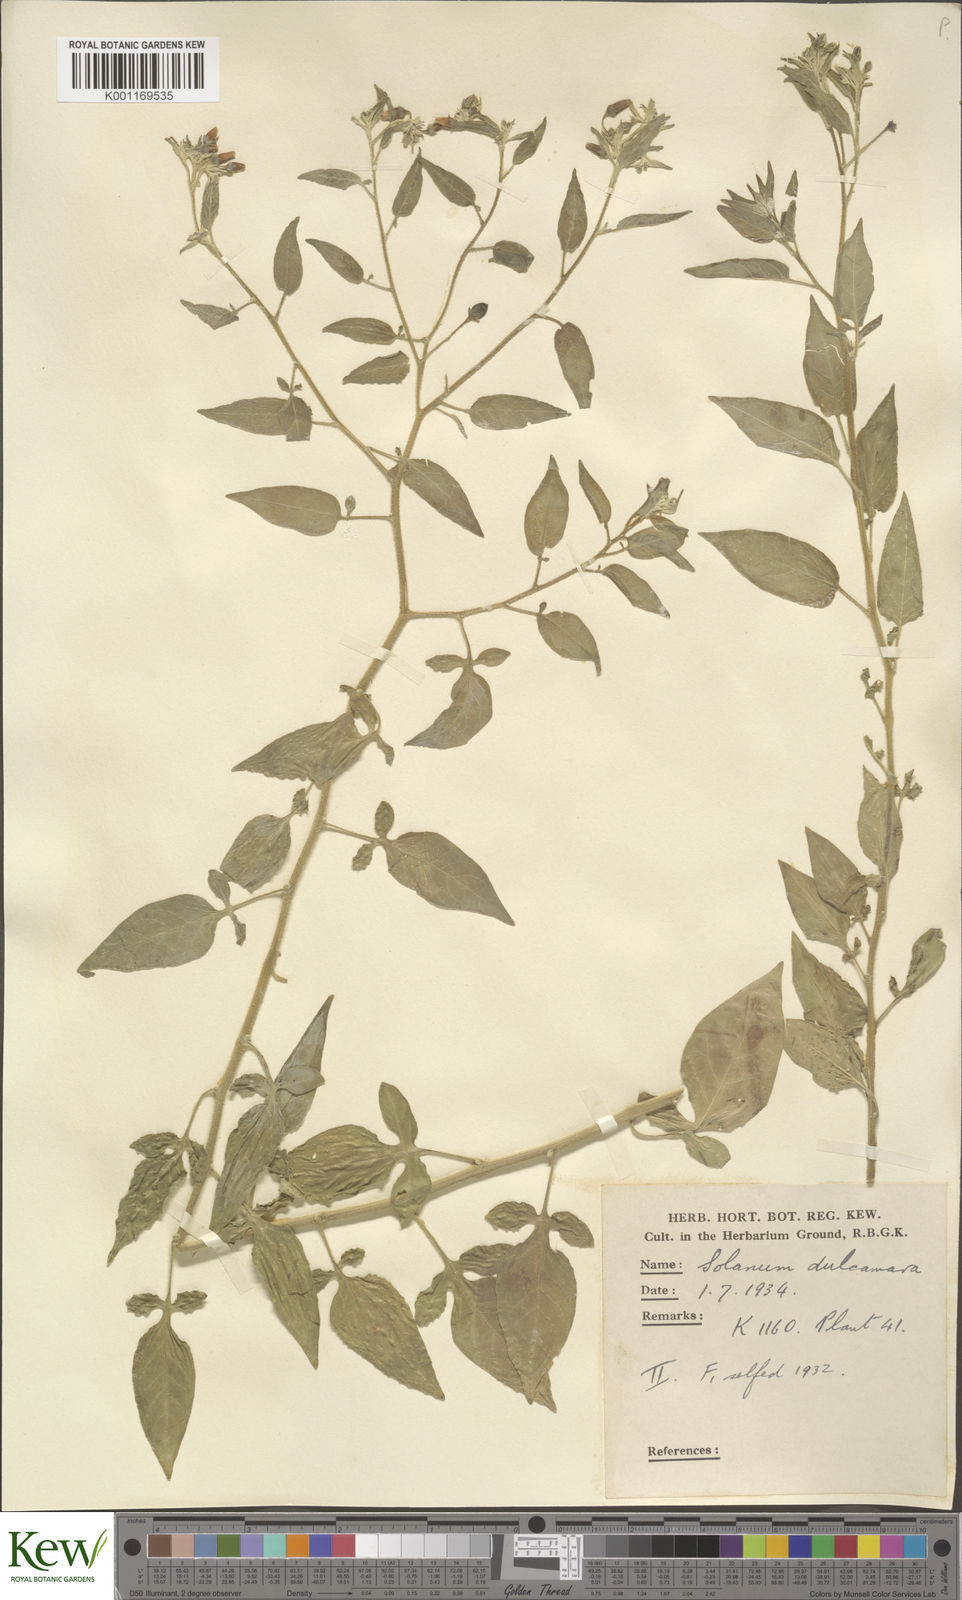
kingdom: Plantae
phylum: Tracheophyta
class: Magnoliopsida
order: Solanales
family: Solanaceae
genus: Solanum
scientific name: Solanum dulcamara
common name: Climbing nightshade
